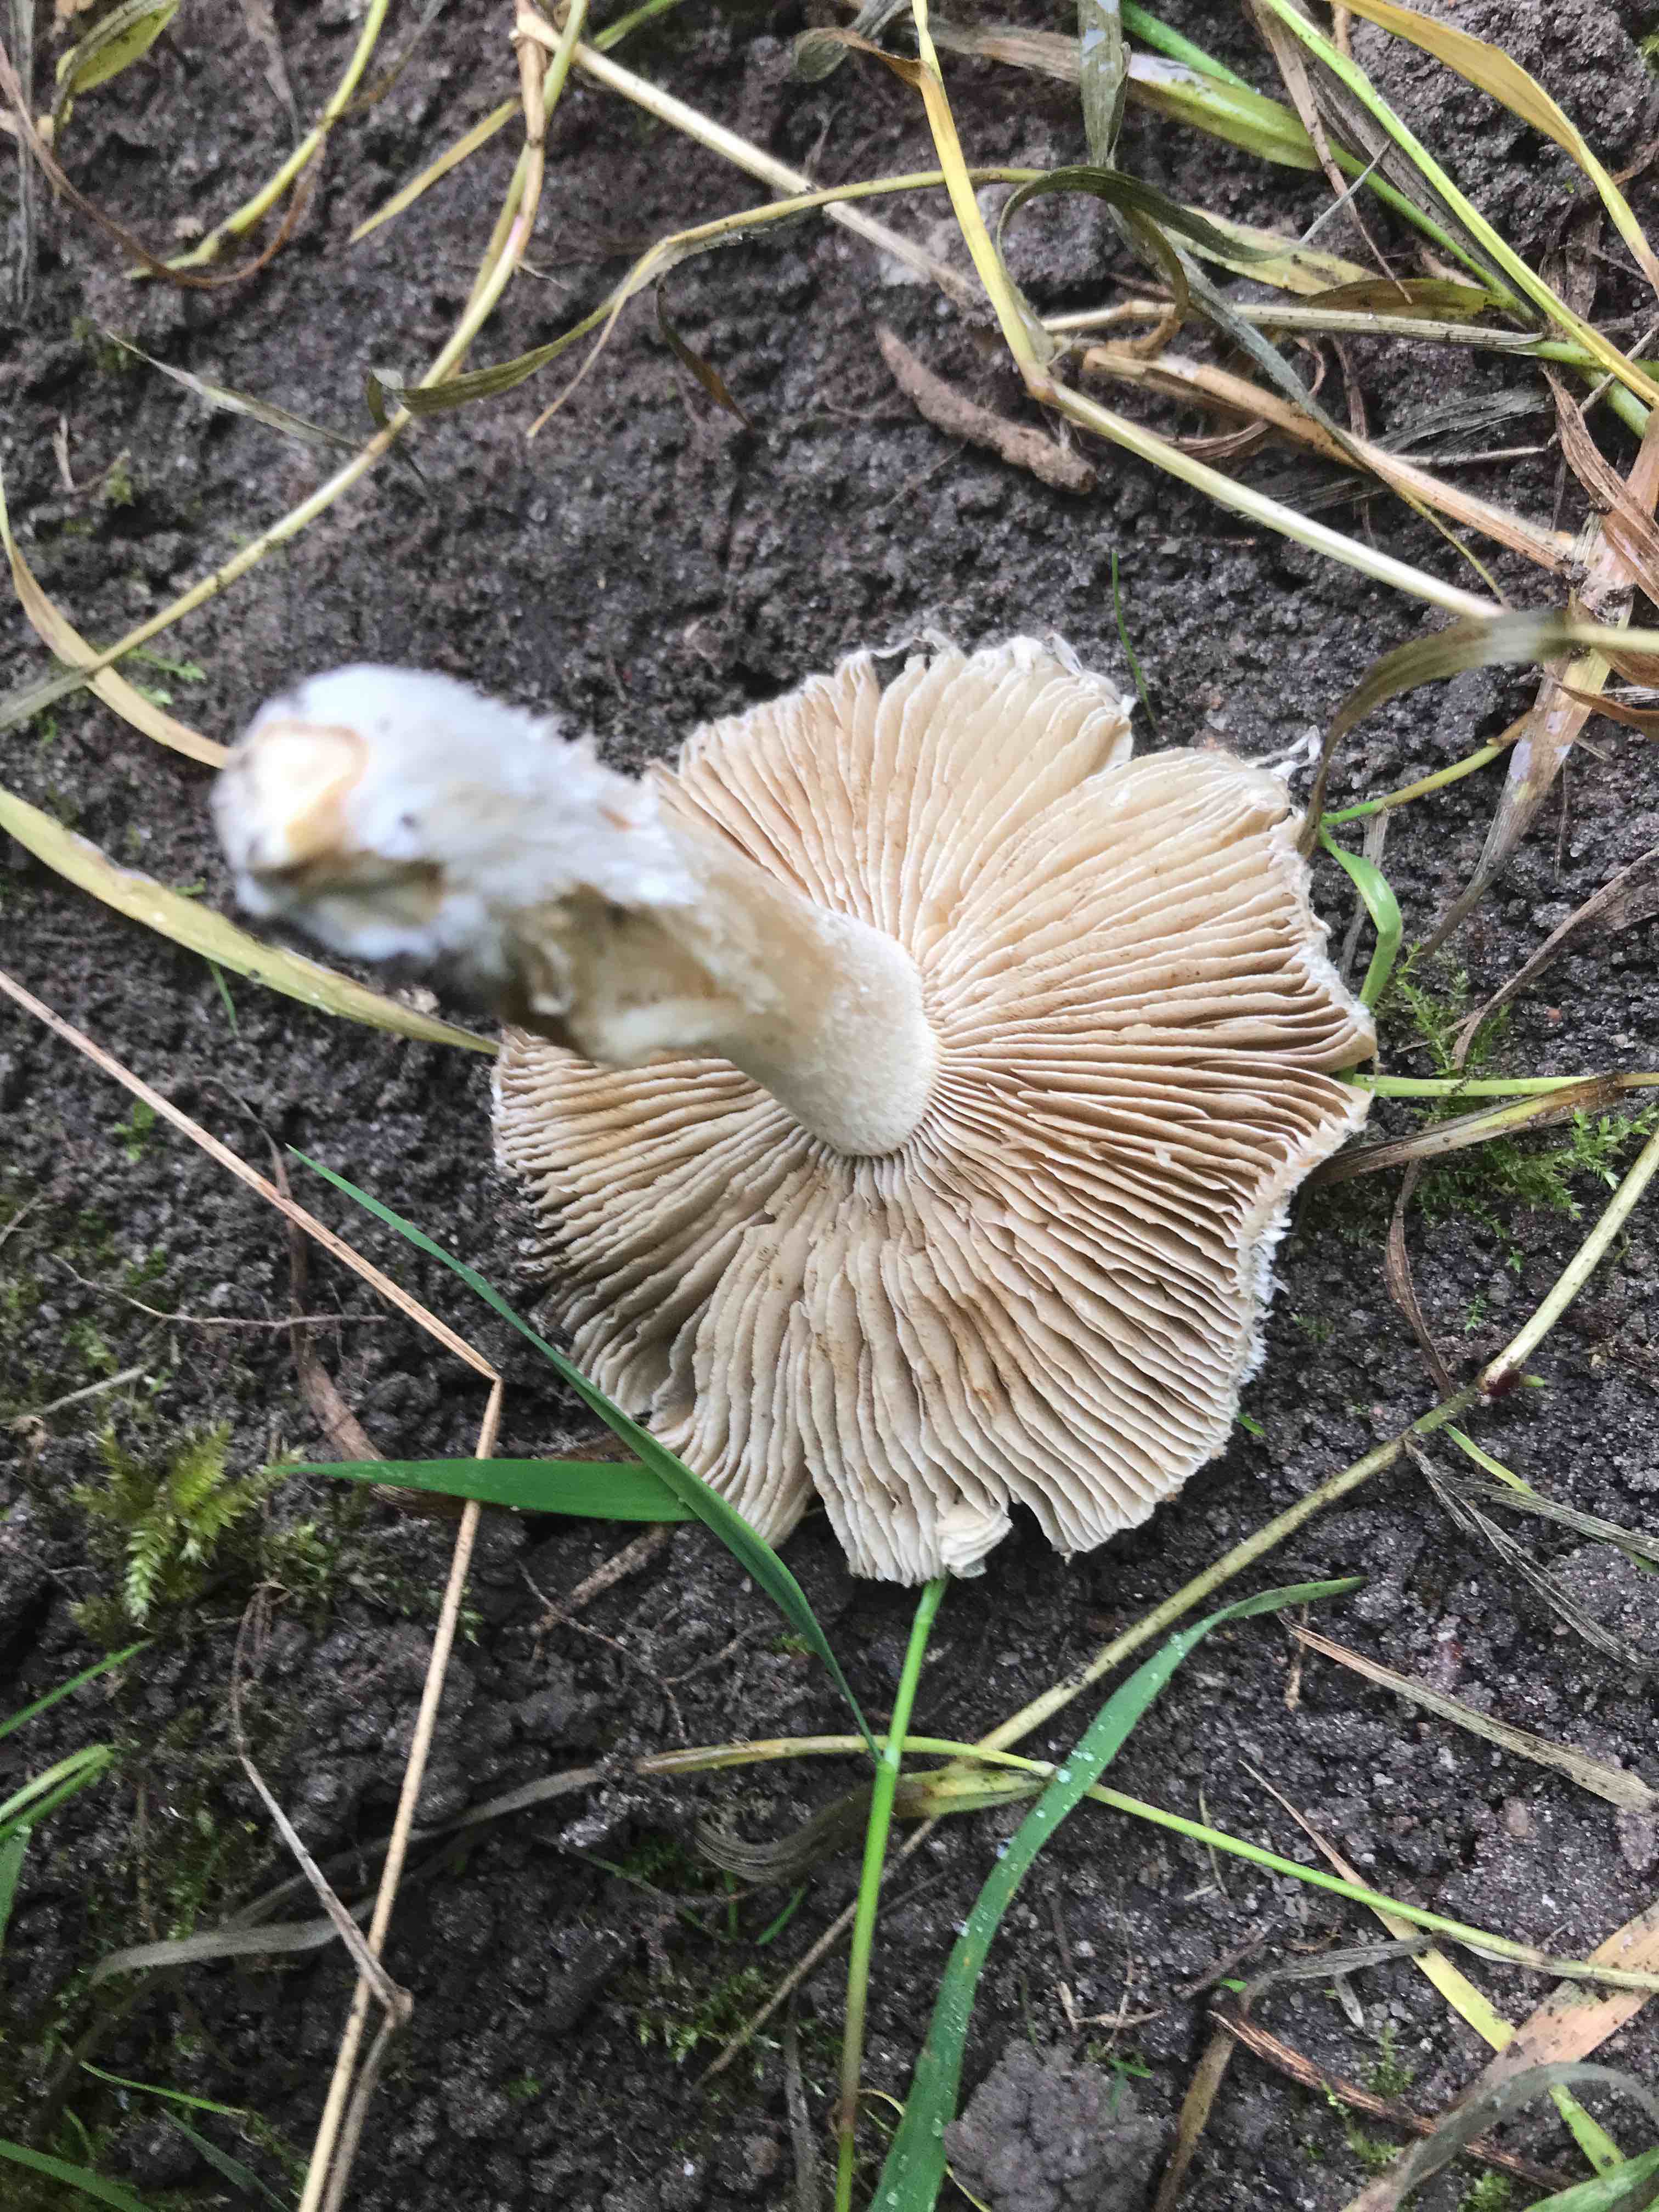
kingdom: Fungi
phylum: Basidiomycota
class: Agaricomycetes
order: Agaricales
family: Inocybaceae
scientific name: Inocybaceae
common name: trævlhatfamilien
